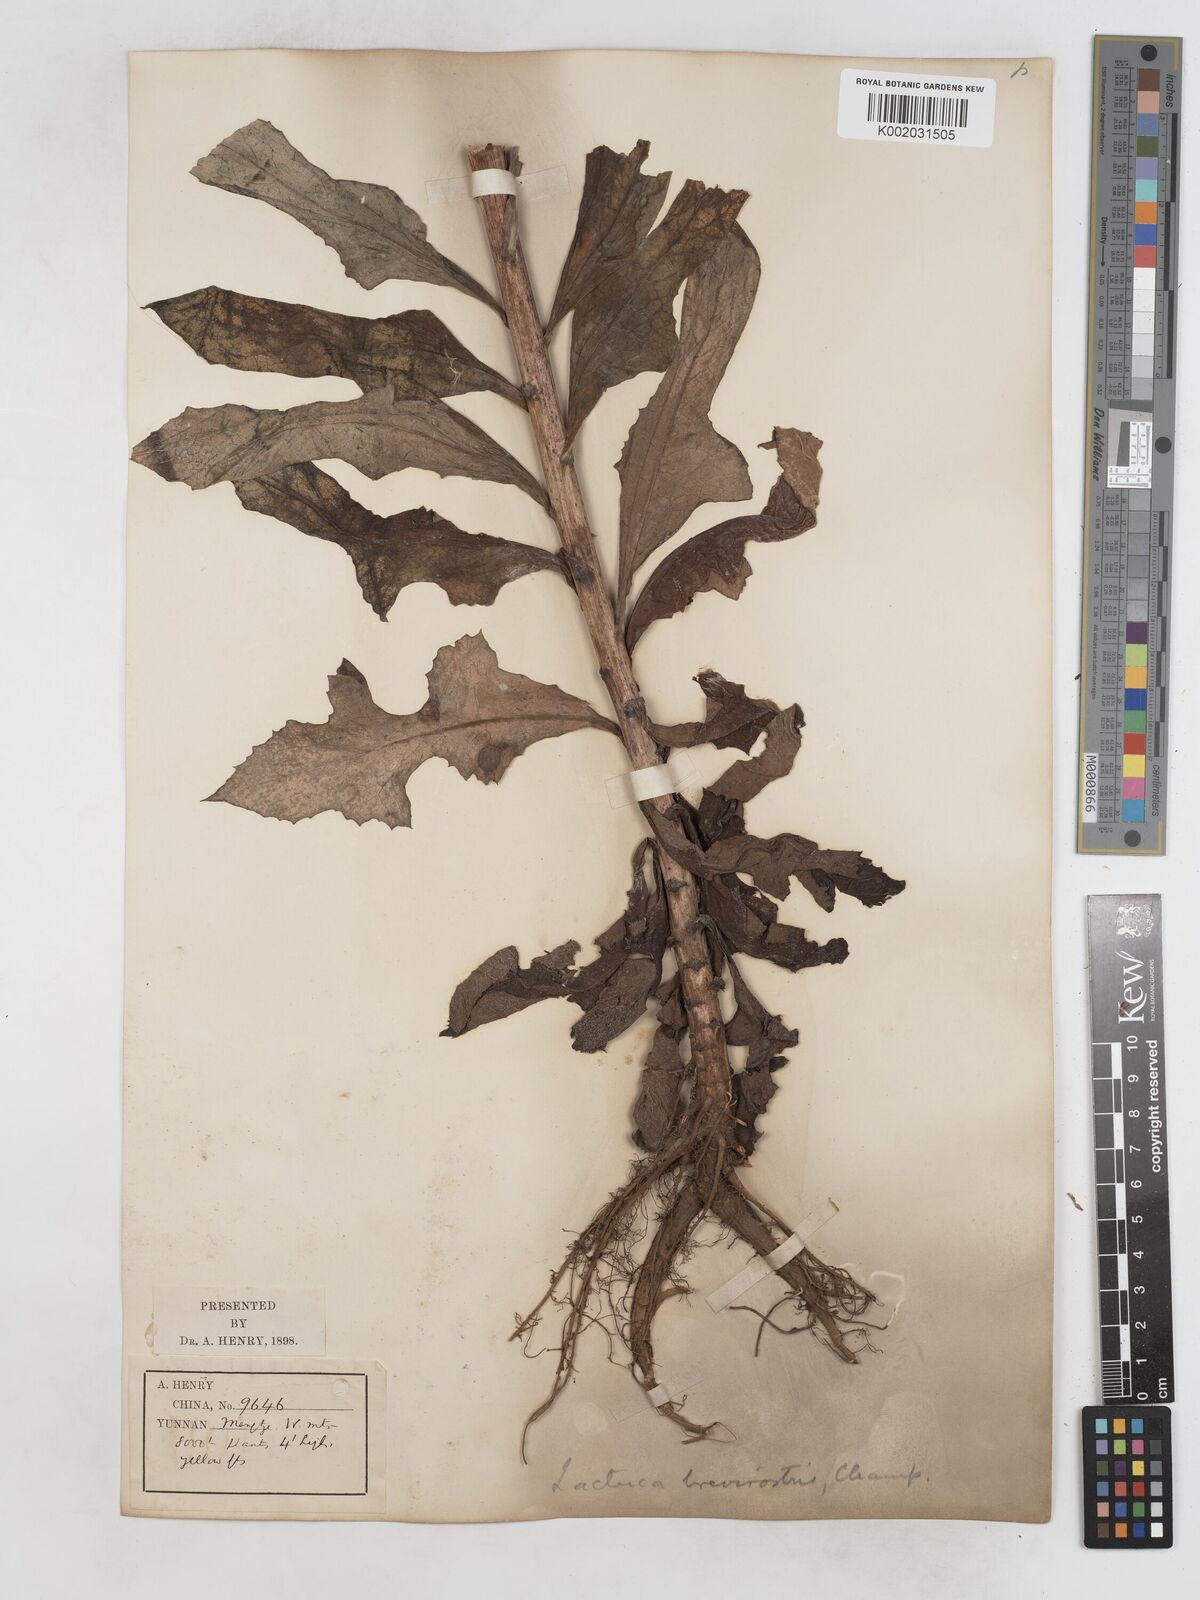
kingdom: Plantae
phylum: Tracheophyta
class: Magnoliopsida
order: Asterales
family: Asteraceae
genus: Lactuca
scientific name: Lactuca indica
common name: Wild lettuce
